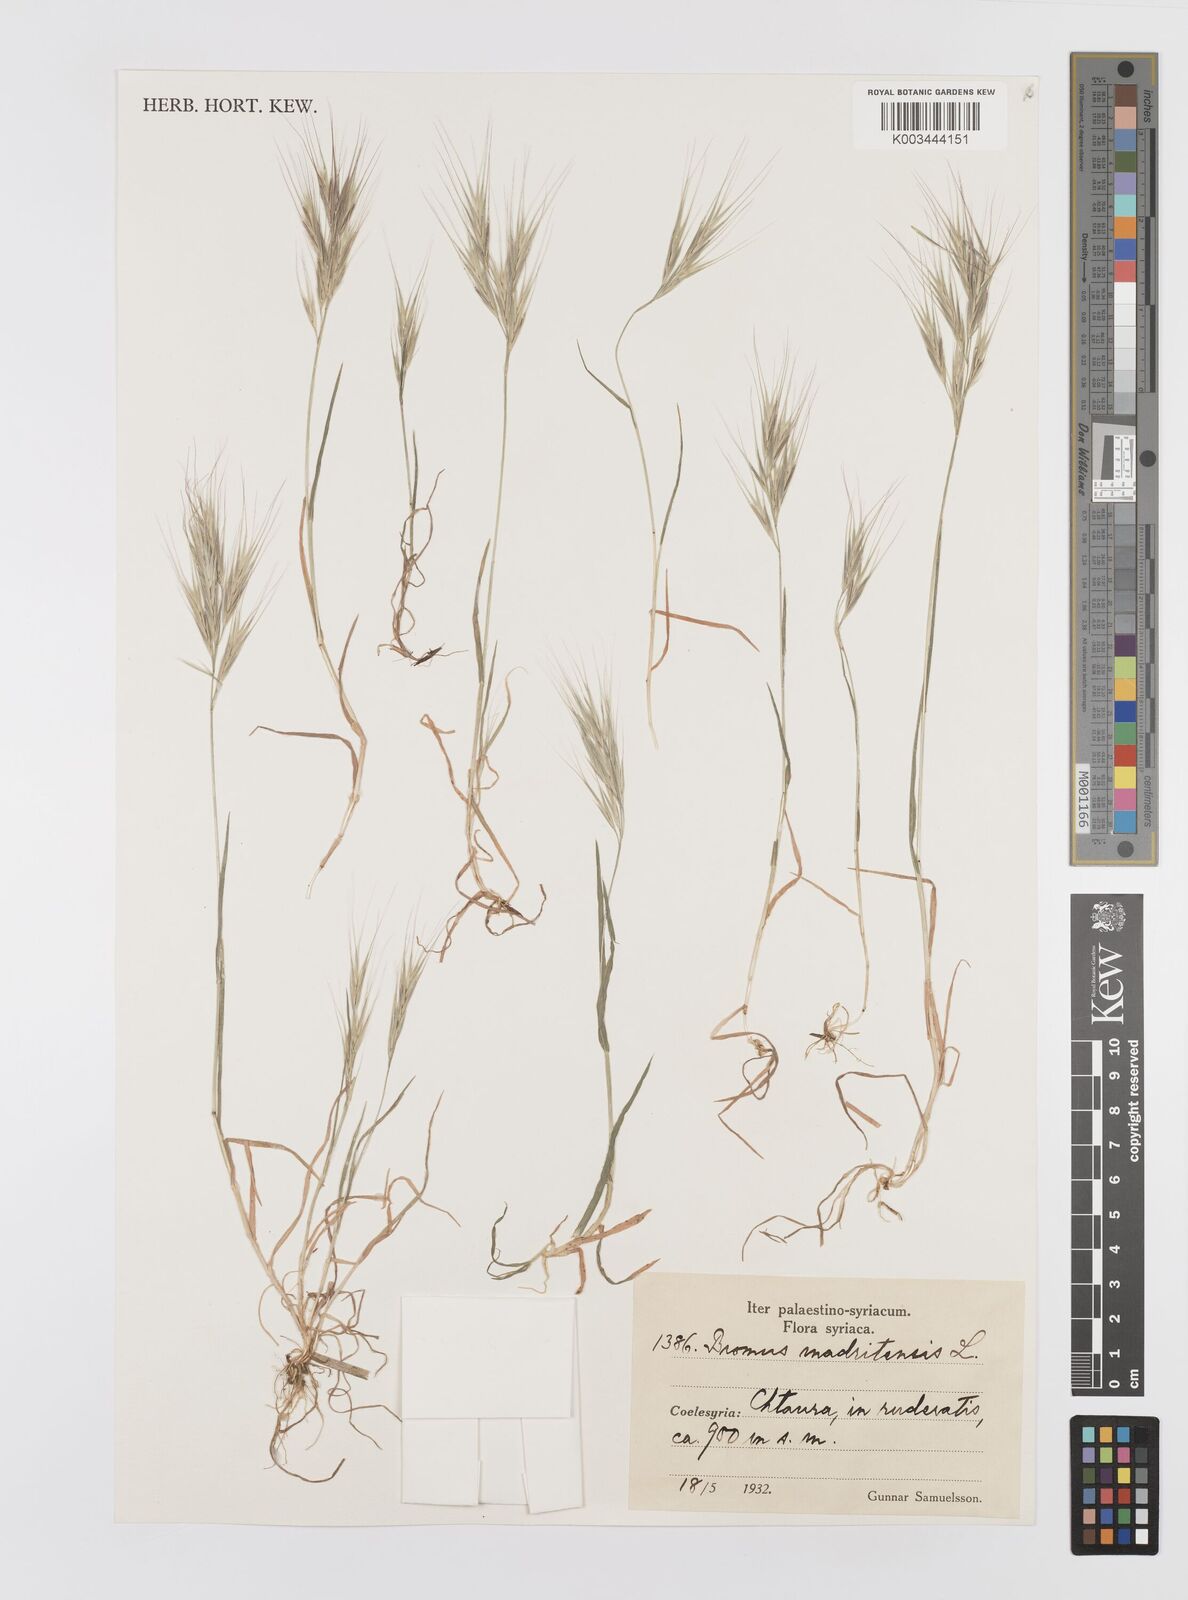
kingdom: Plantae
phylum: Tracheophyta
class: Liliopsida
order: Poales
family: Poaceae
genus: Bromus
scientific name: Bromus madritensis
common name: Compact brome
